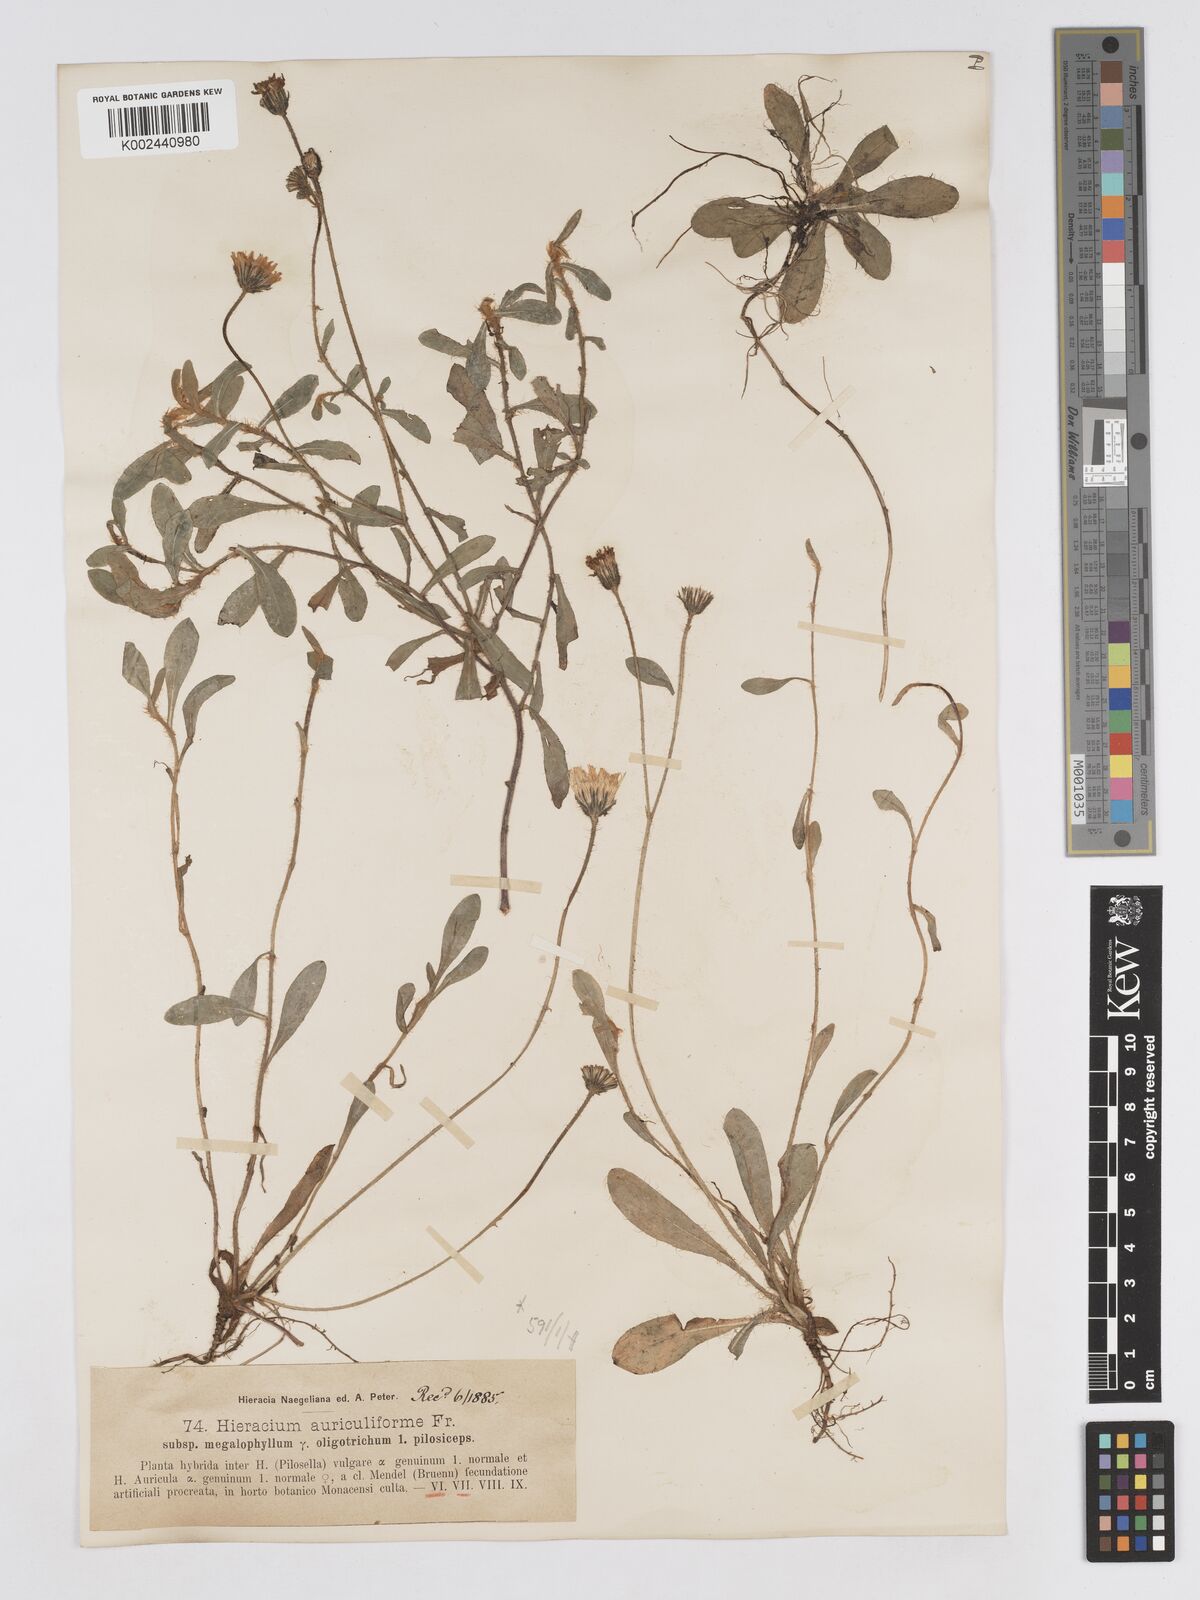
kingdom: Plantae
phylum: Tracheophyta
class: Magnoliopsida
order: Asterales
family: Asteraceae
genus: Pilosella
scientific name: Pilosella schultesii
